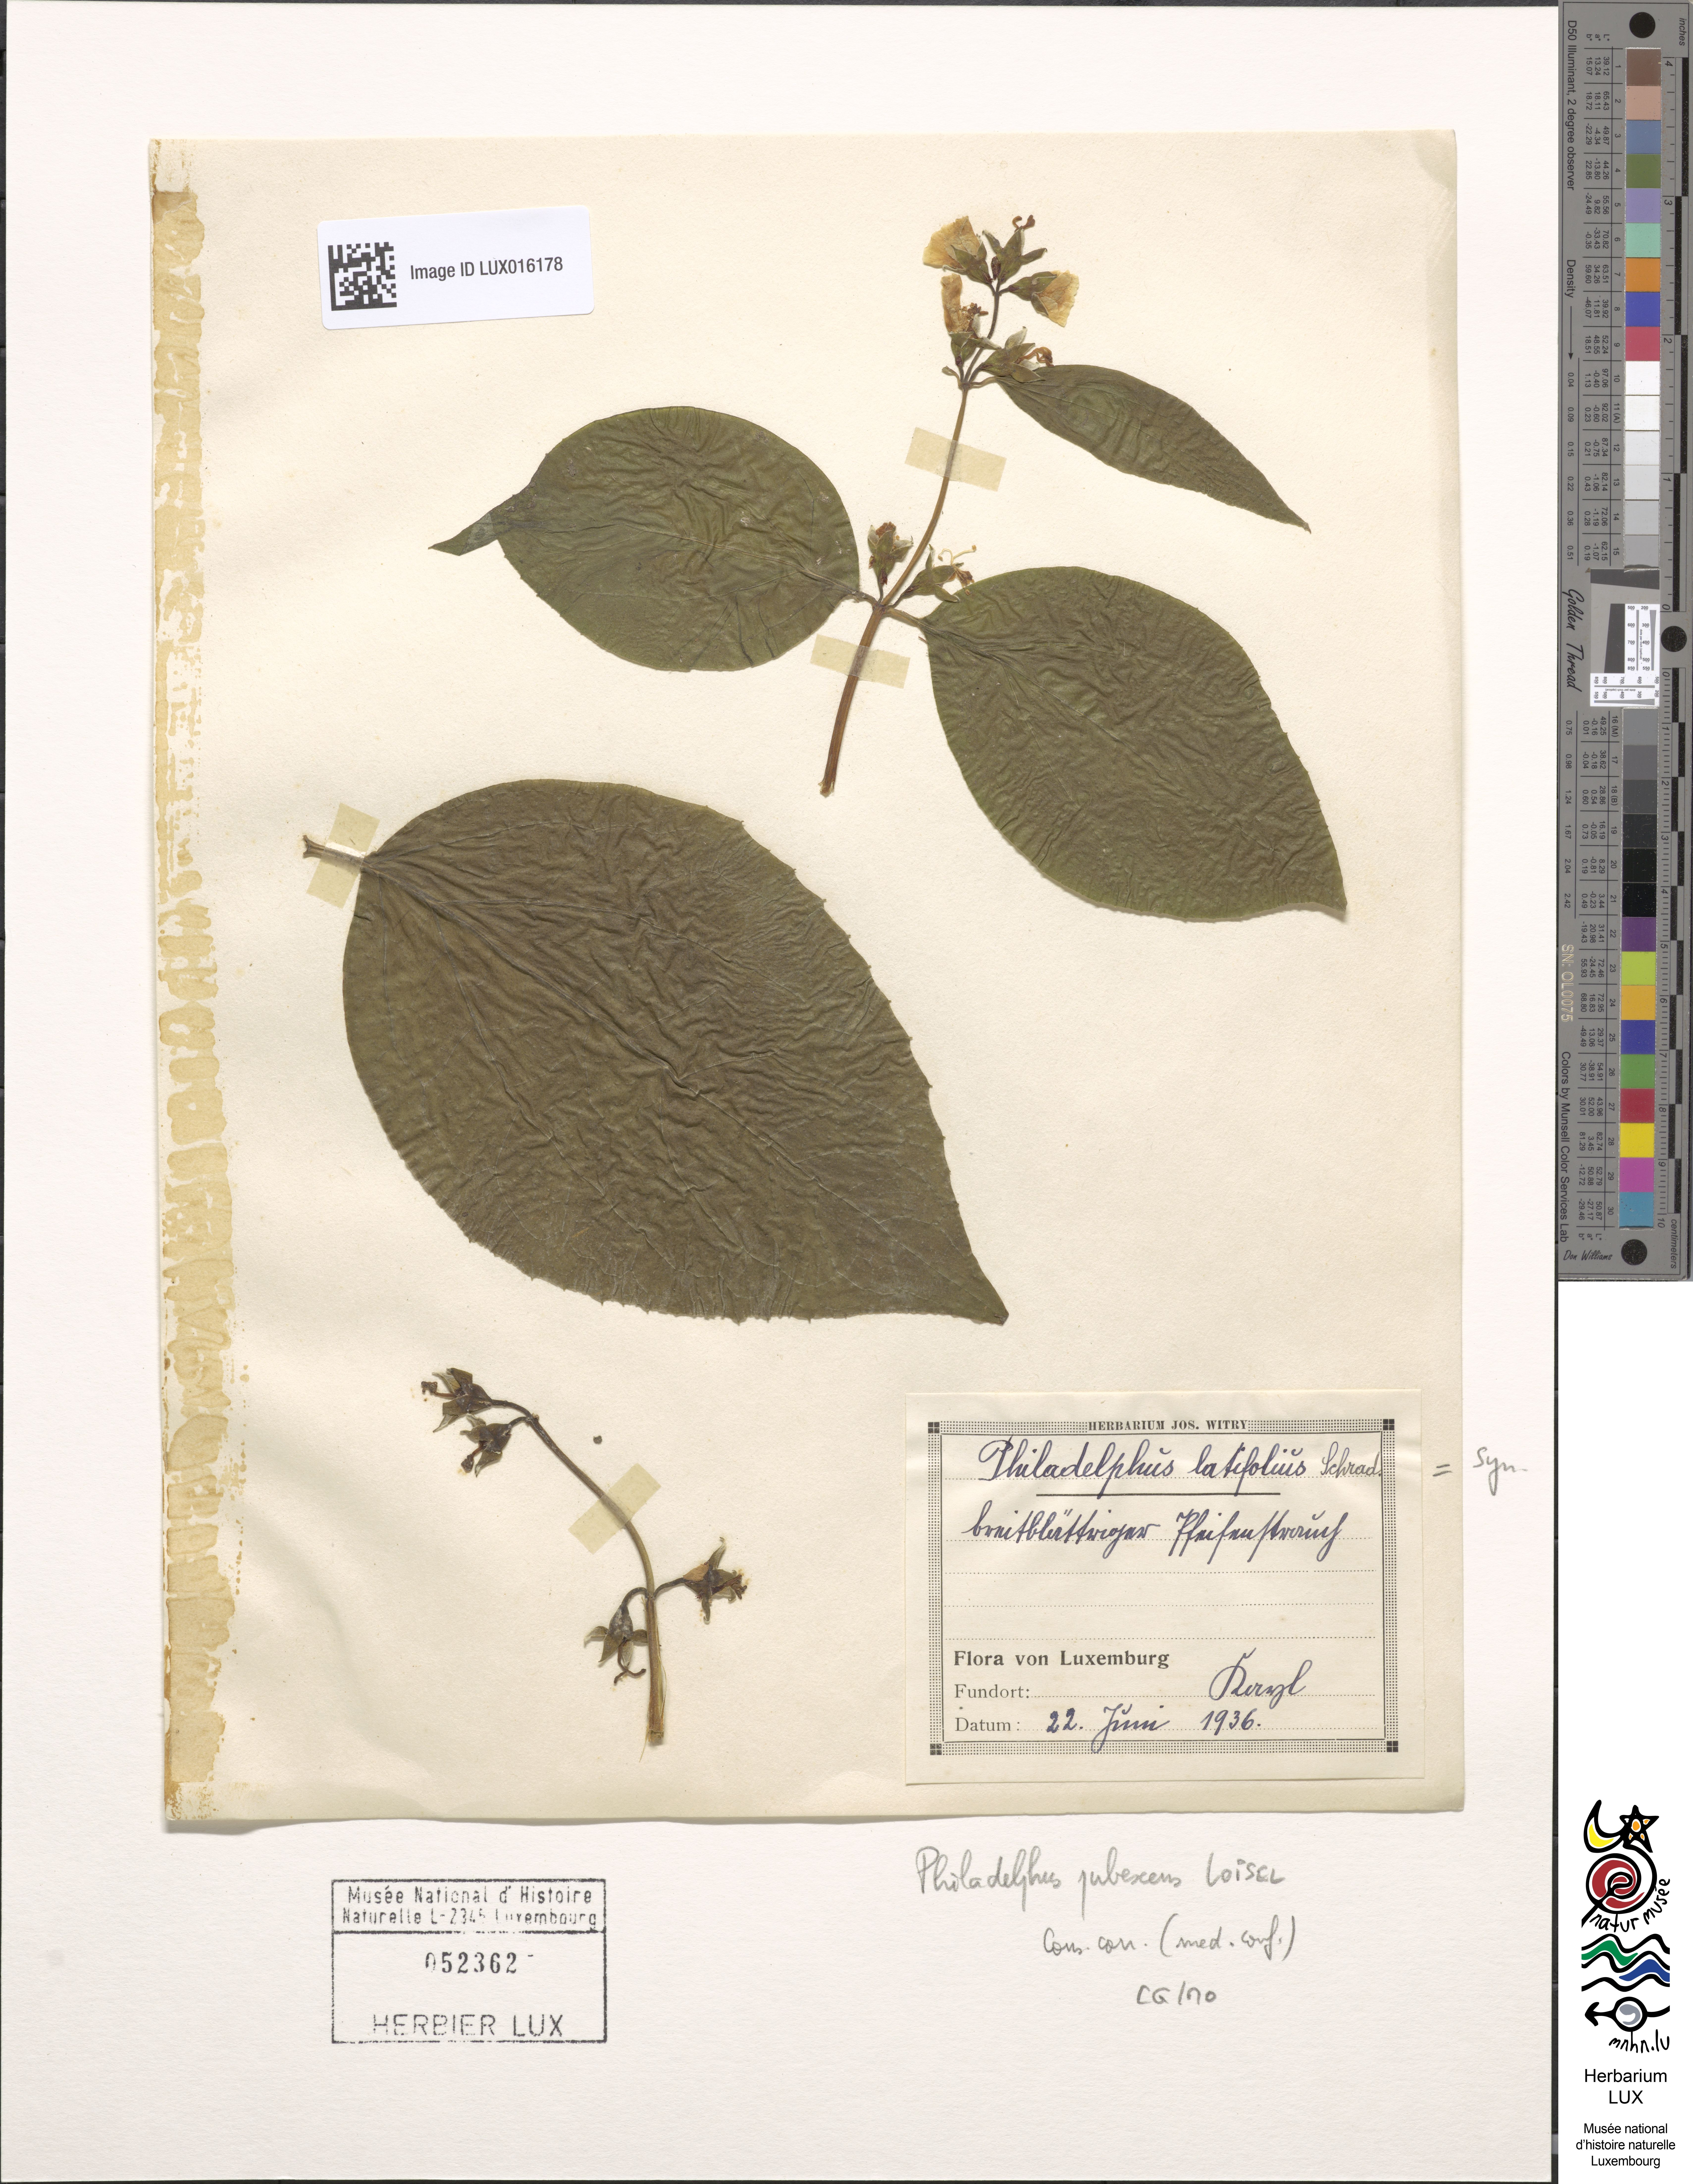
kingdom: Plantae
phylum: Tracheophyta
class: Magnoliopsida
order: Cornales
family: Hydrangeaceae
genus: Philadelphus
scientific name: Philadelphus pubescens
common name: Broadleaf mock orange
